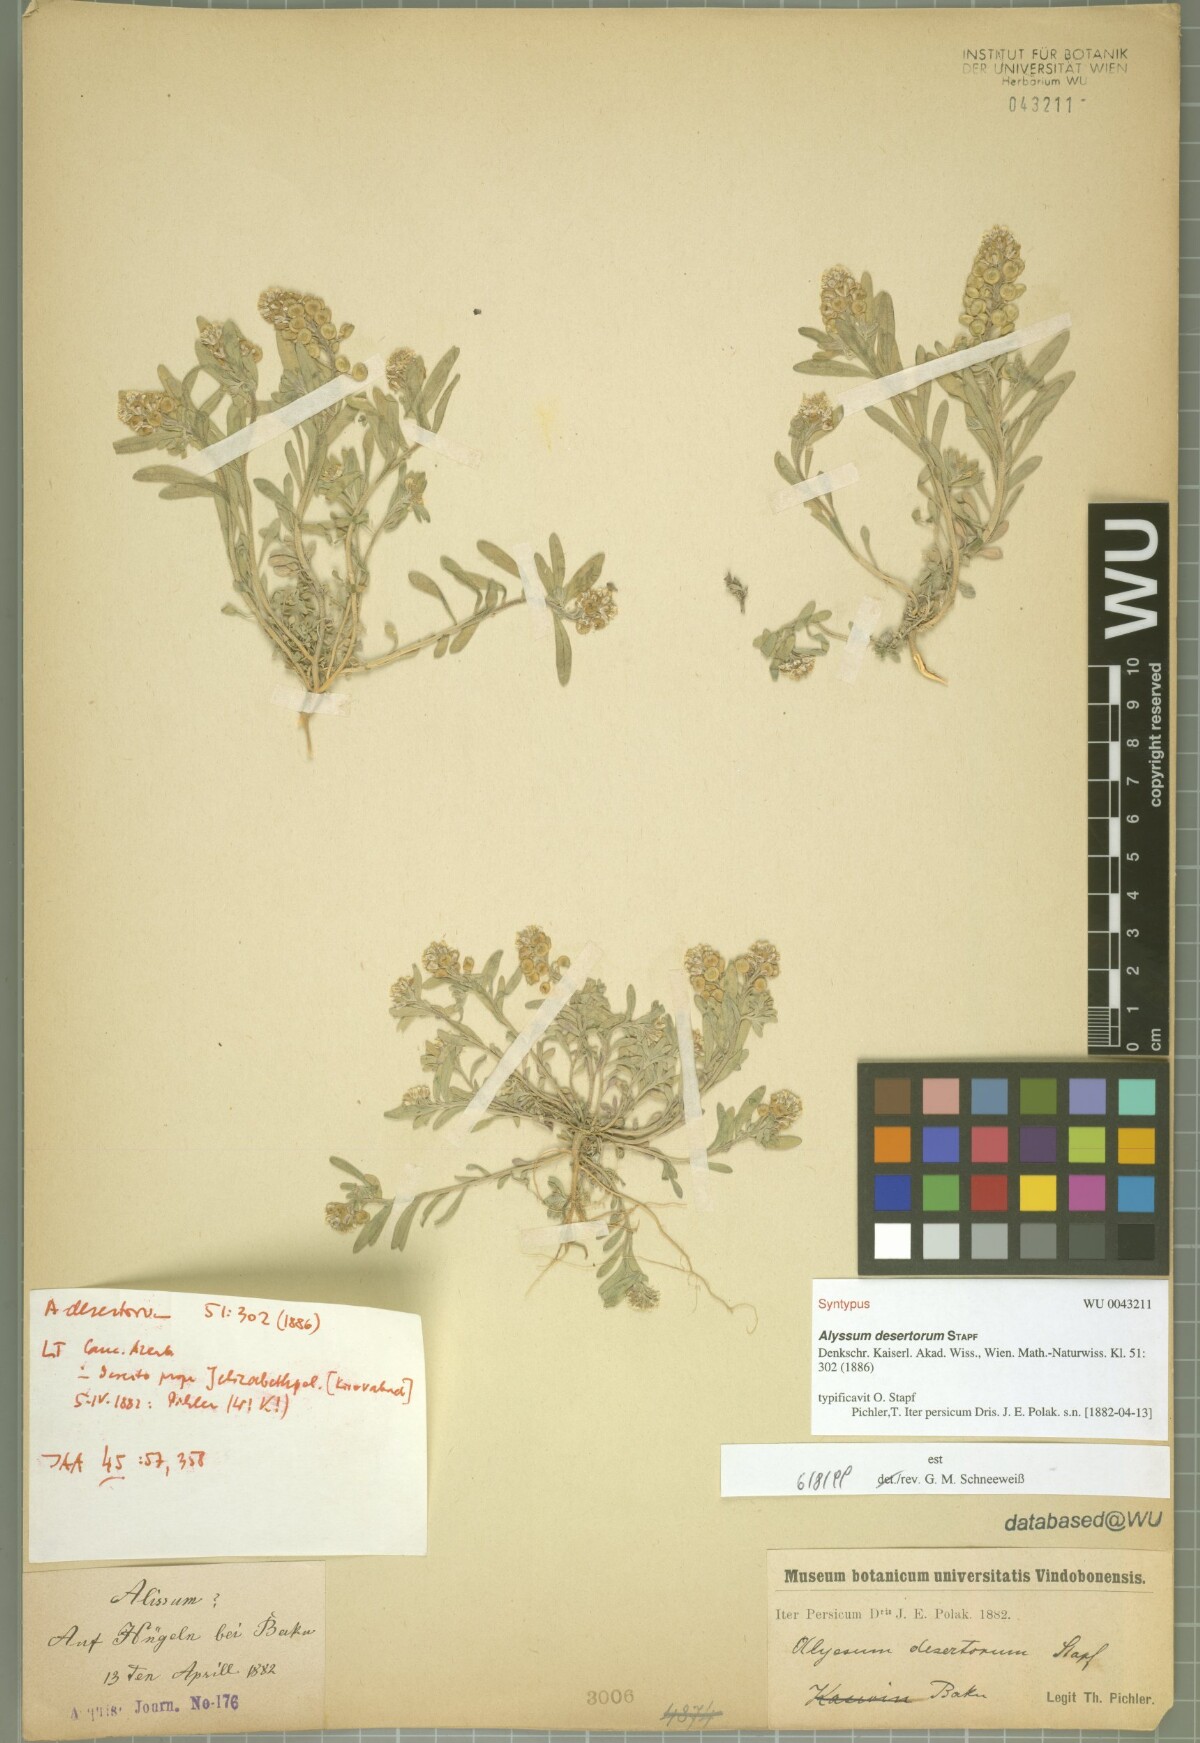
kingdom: Plantae
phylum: Tracheophyta
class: Magnoliopsida
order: Brassicales
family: Brassicaceae
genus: Alyssum
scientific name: Alyssum turkestanicum
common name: Desert alyssum
